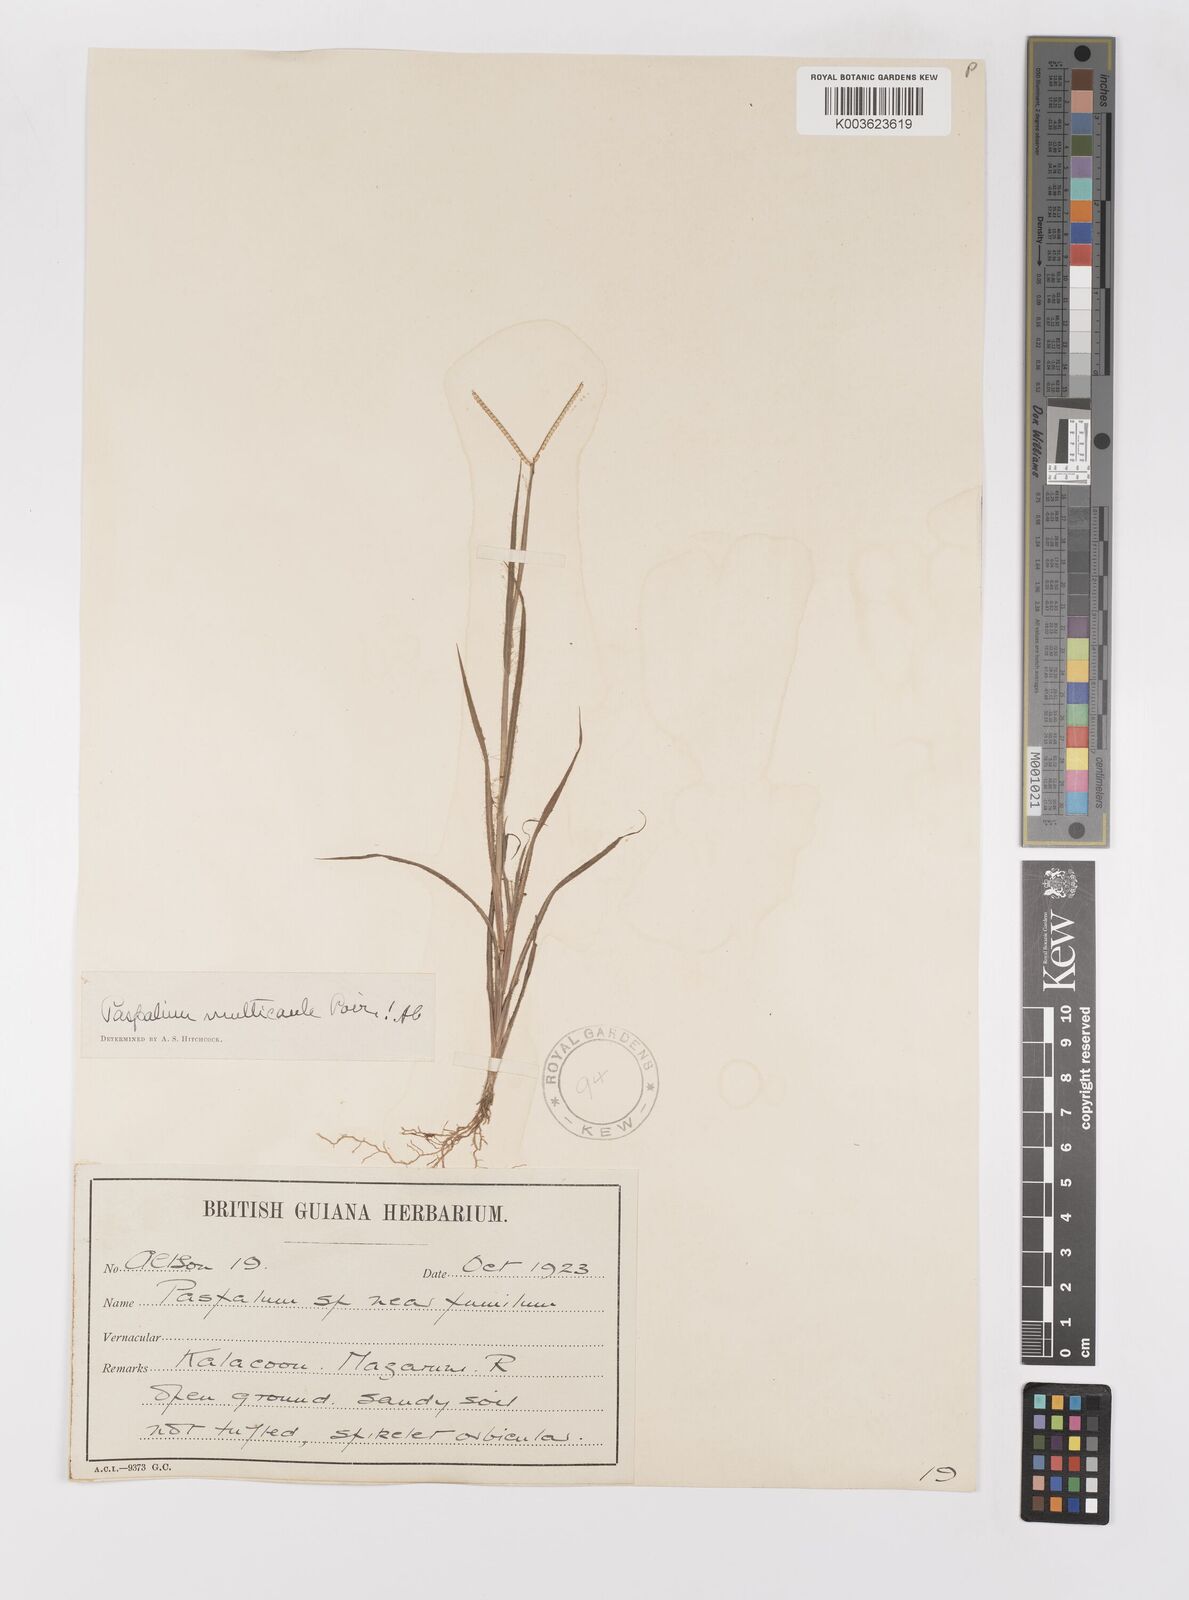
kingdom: Plantae
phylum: Tracheophyta
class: Liliopsida
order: Poales
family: Poaceae
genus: Paspalum
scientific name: Paspalum multicaule
